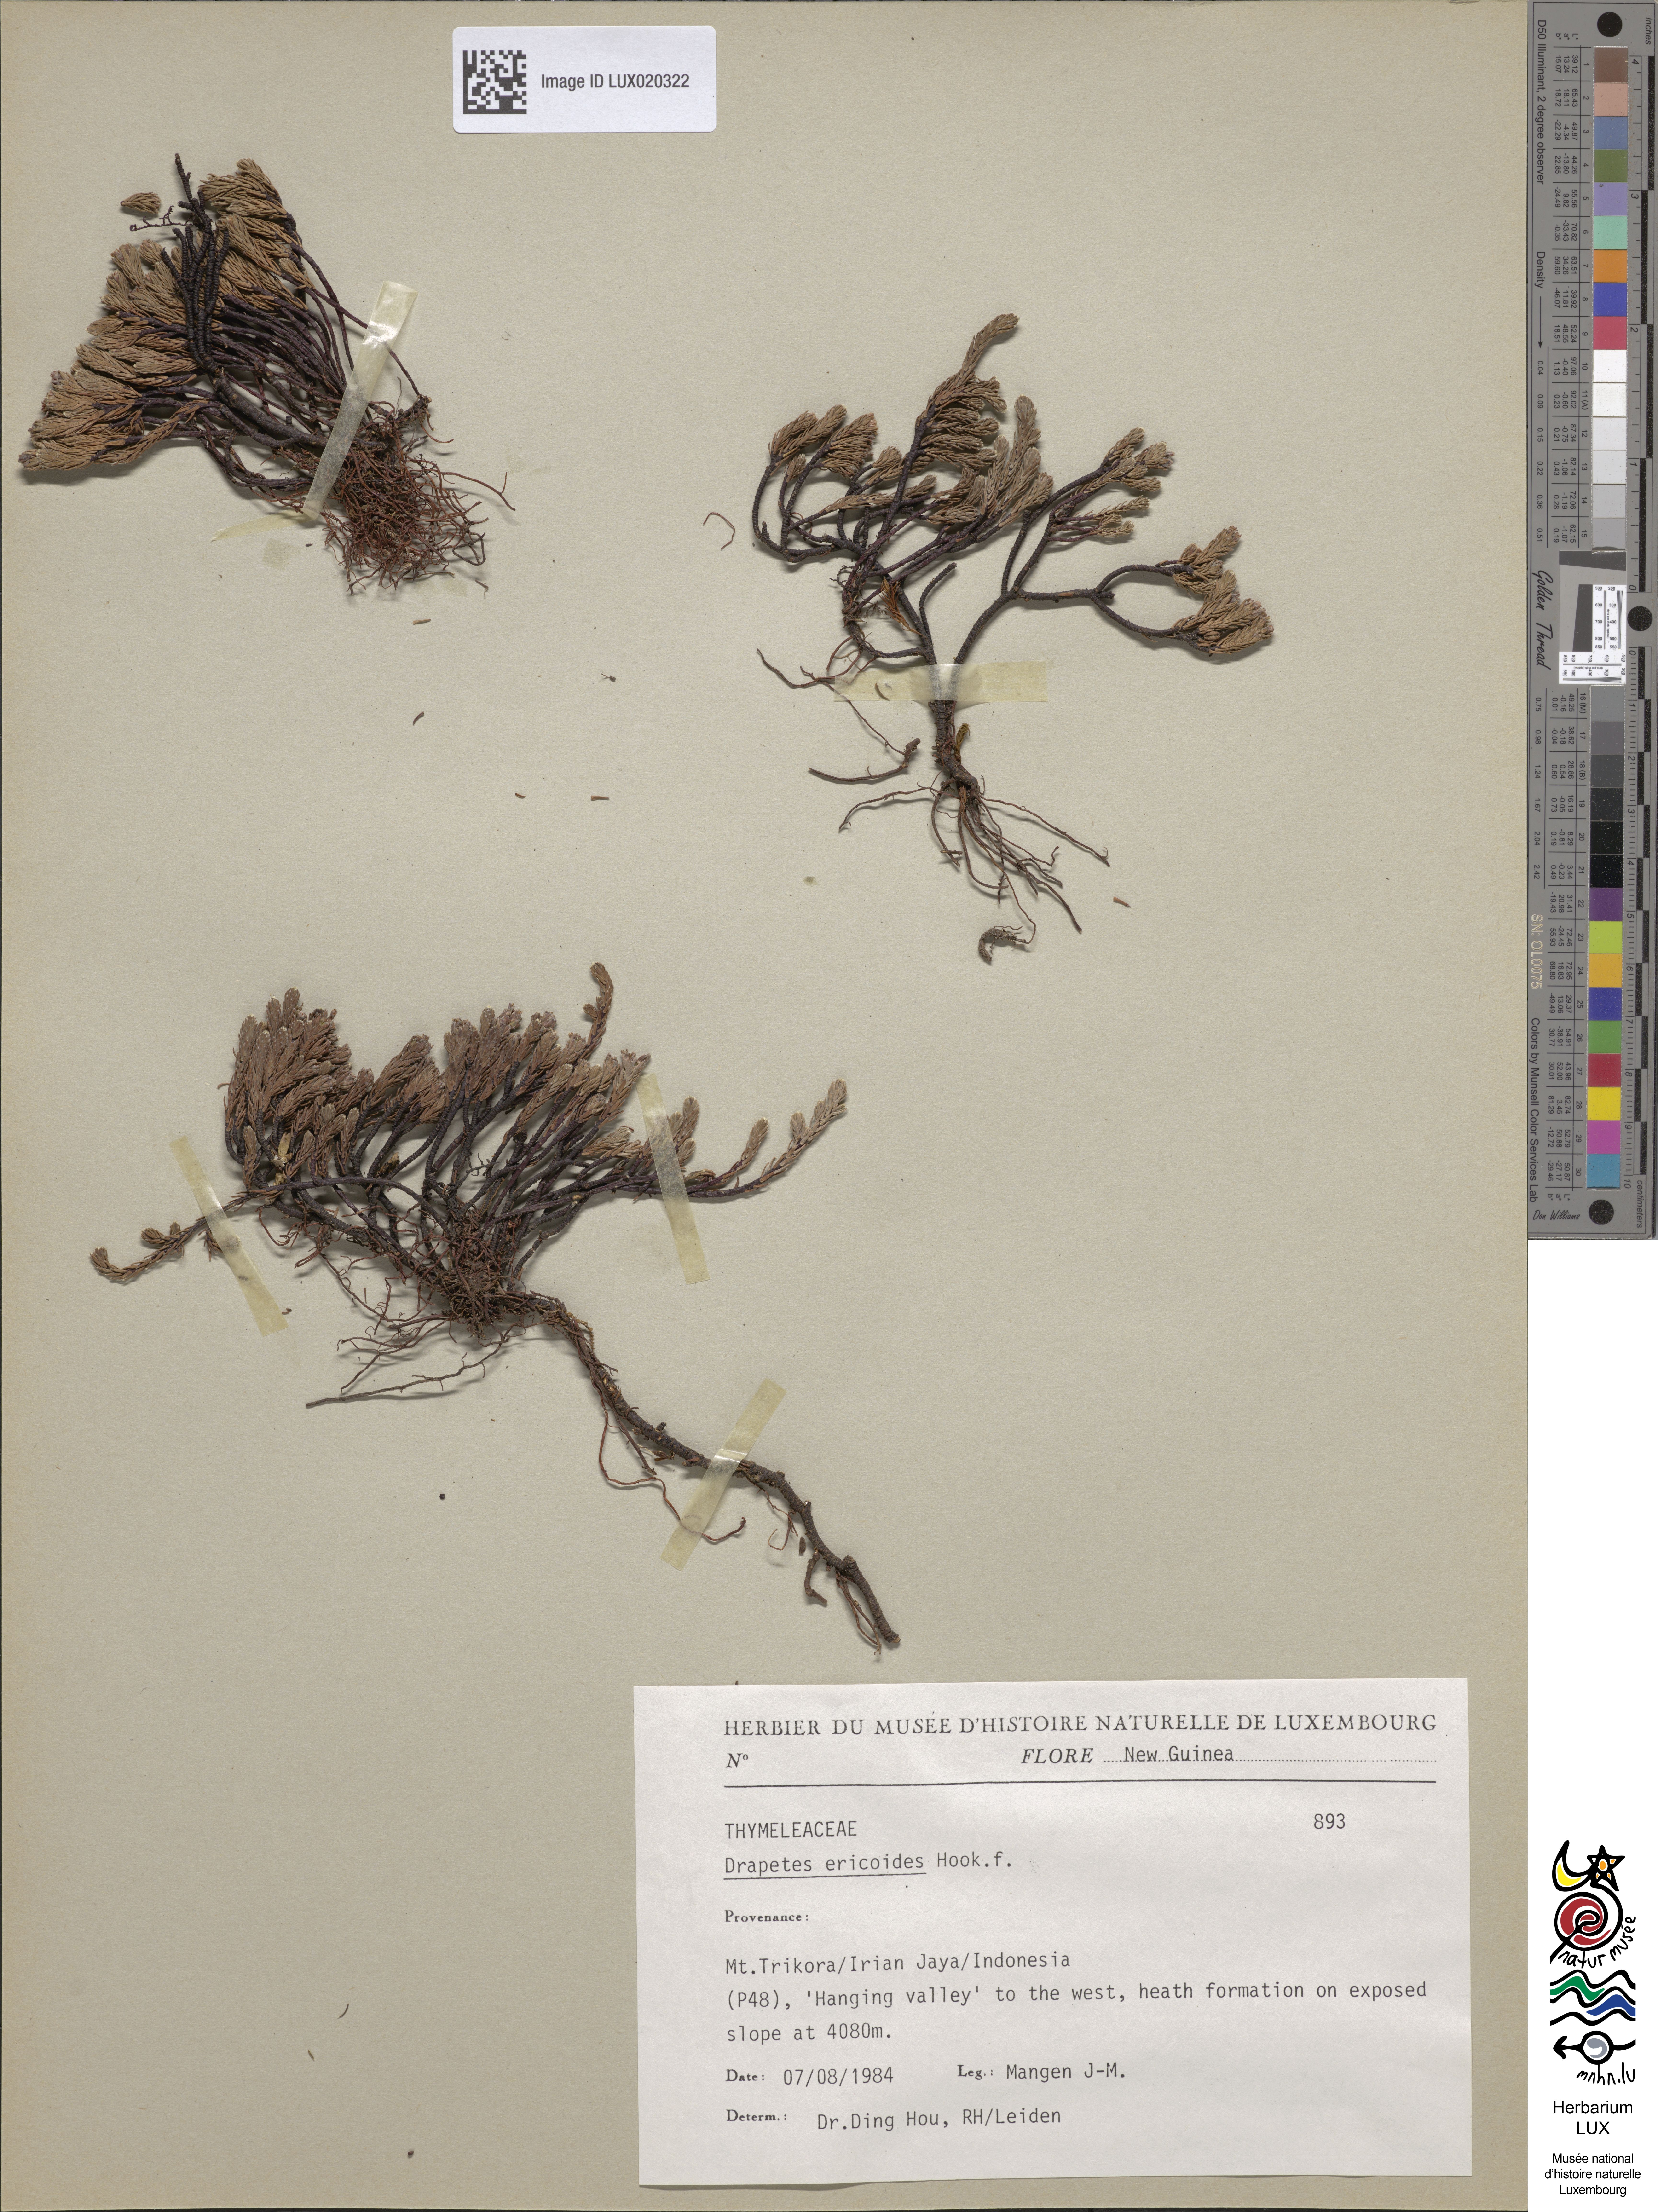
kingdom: Animalia
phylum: Arthropoda
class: Insecta
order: Coleoptera
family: Elateridae
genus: Drapetes
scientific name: Drapetes
